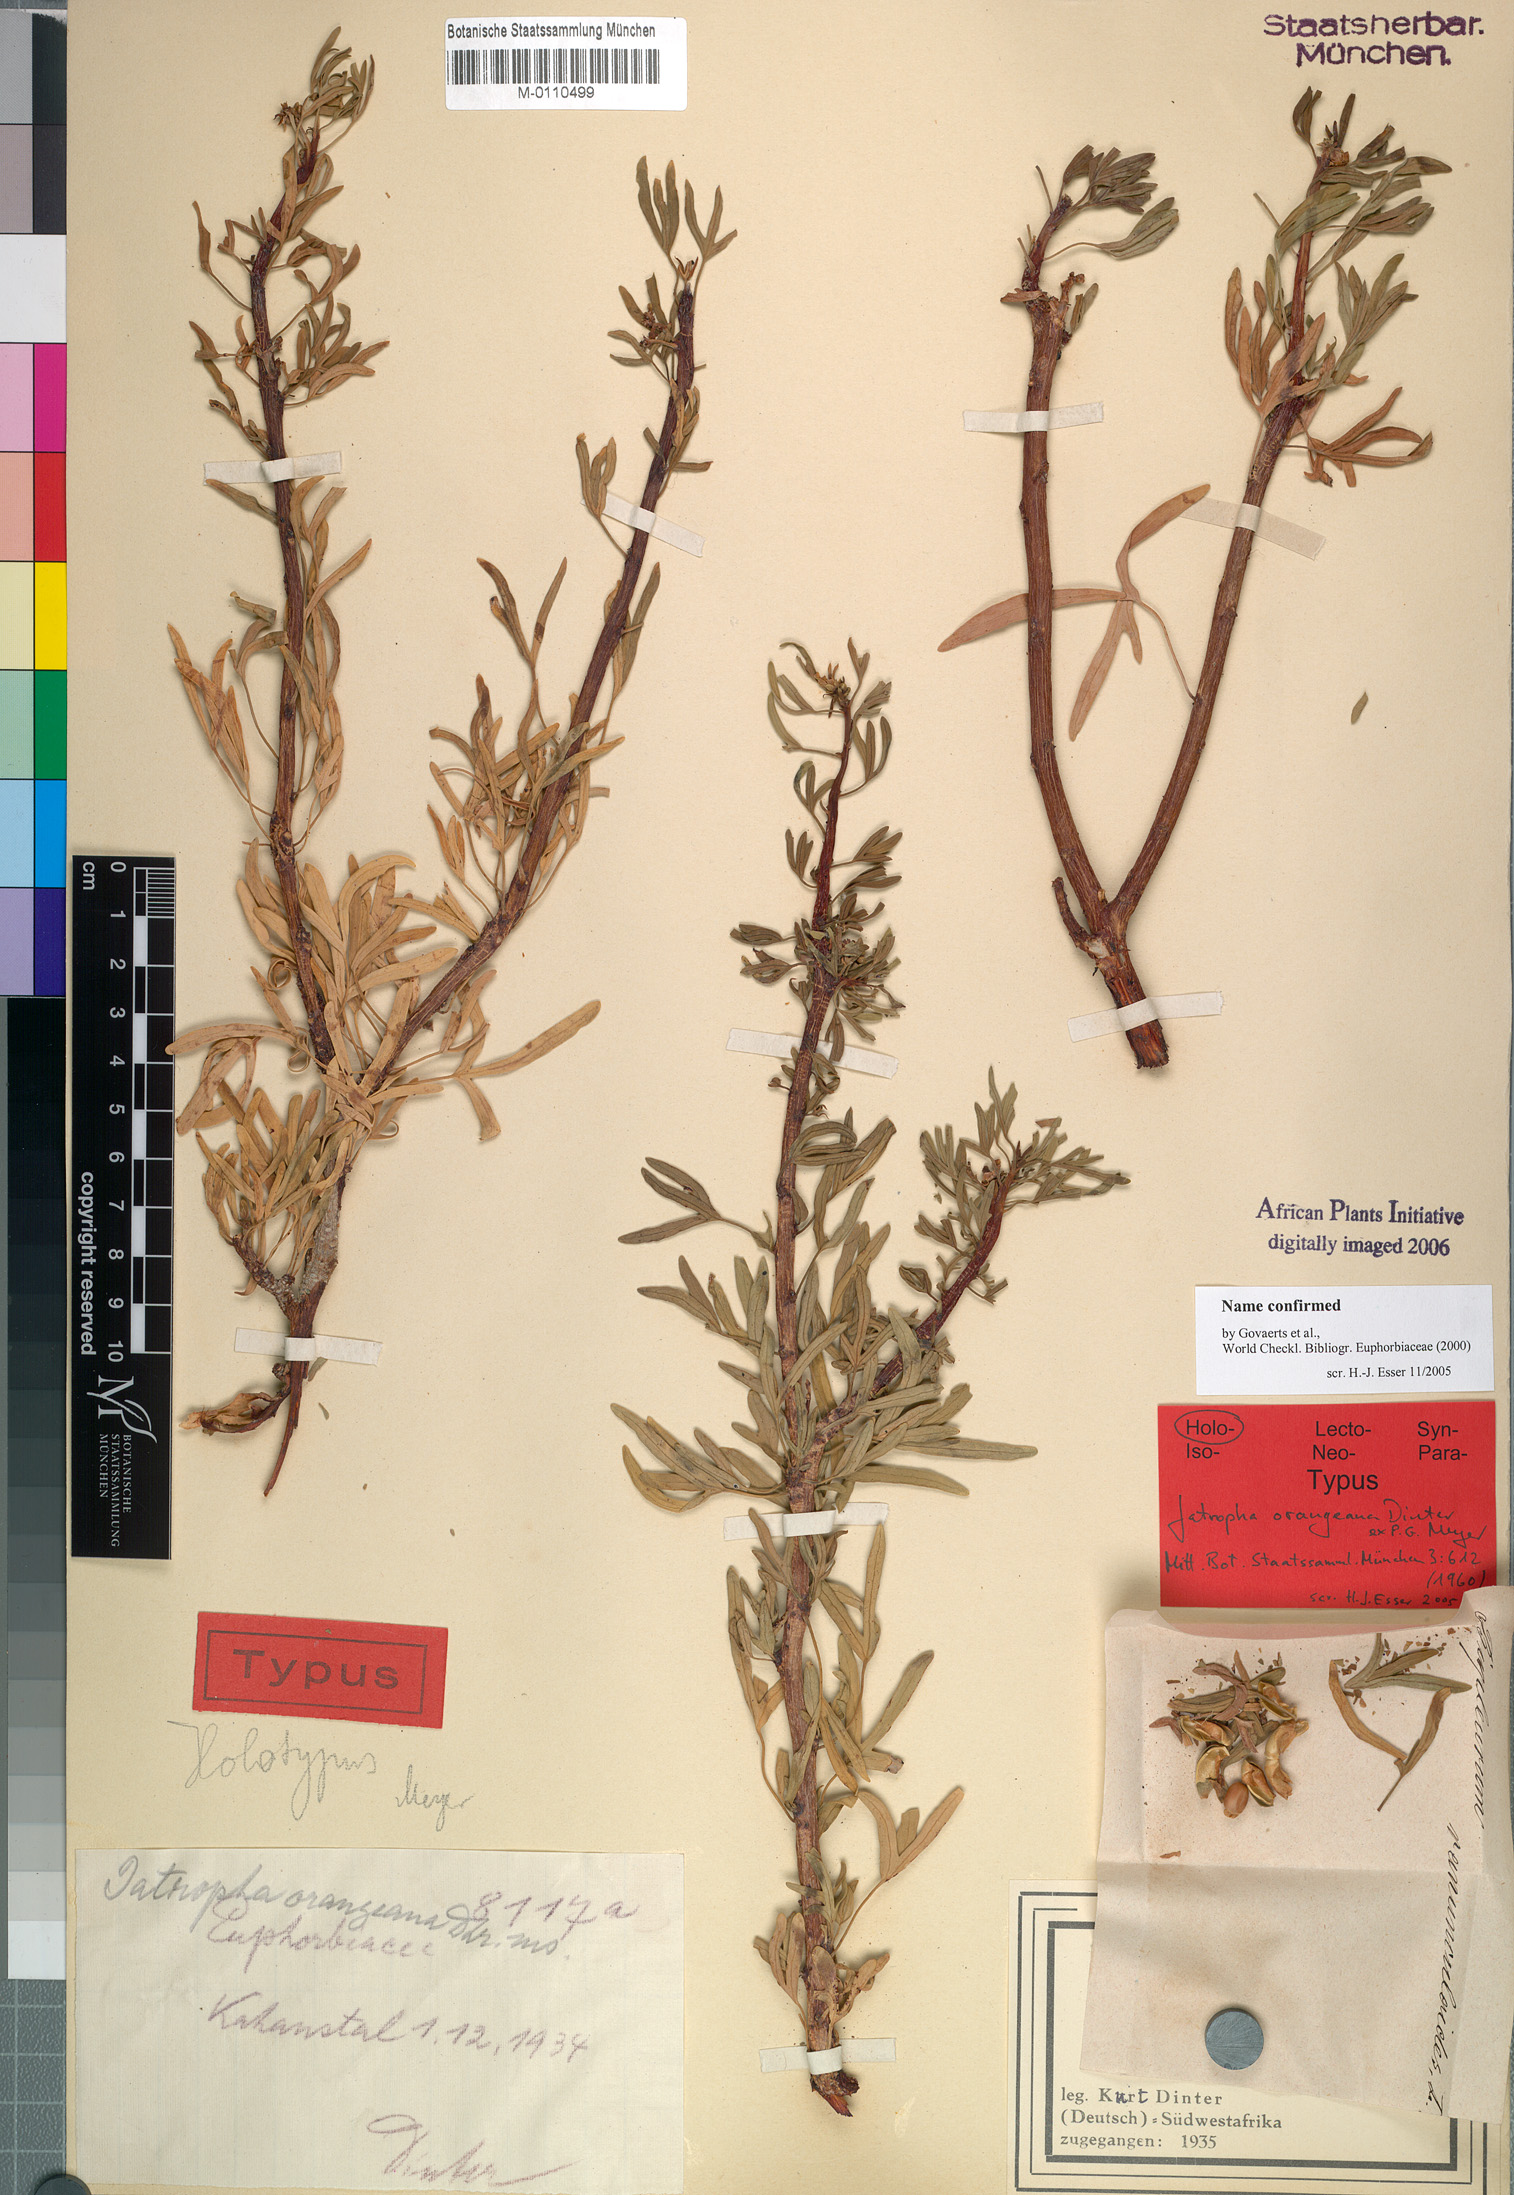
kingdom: Plantae
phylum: Tracheophyta
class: Magnoliopsida
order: Malpighiales
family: Euphorbiaceae
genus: Jatropha
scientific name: Jatropha orangeana
